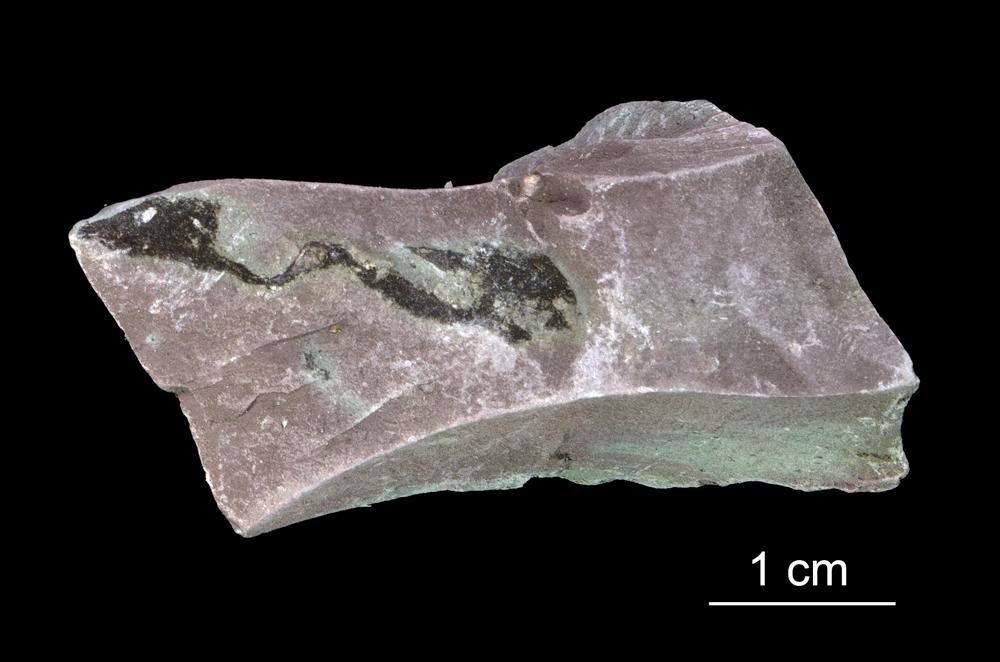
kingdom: Chromista
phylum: Foraminifera
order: Astrorhizida
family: Hyperamminidae
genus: Platysolenites
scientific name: Platysolenites antiquissimus
